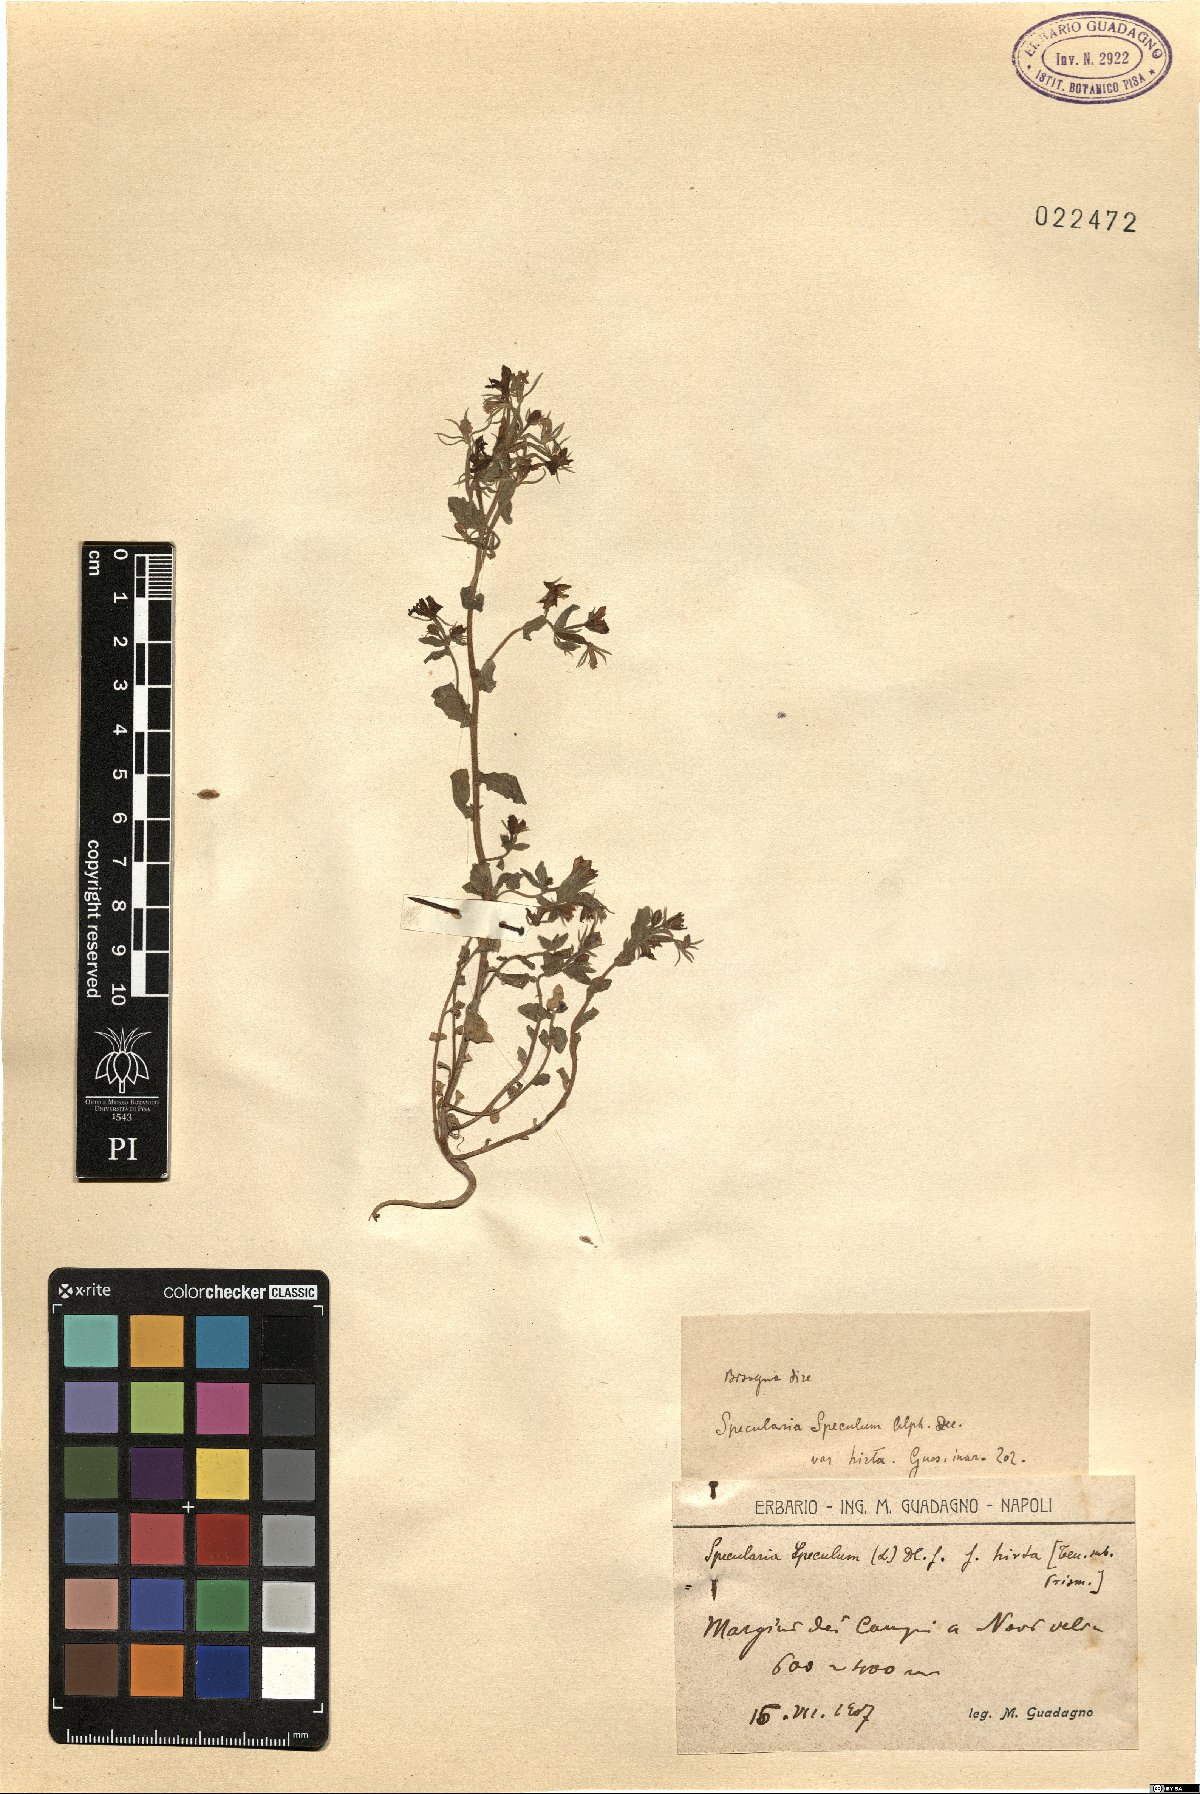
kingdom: Plantae
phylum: Tracheophyta
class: Magnoliopsida
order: Asterales
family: Campanulaceae
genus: Legousia
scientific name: Legousia speculum-veneris
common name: Large venus's-looking-glass
